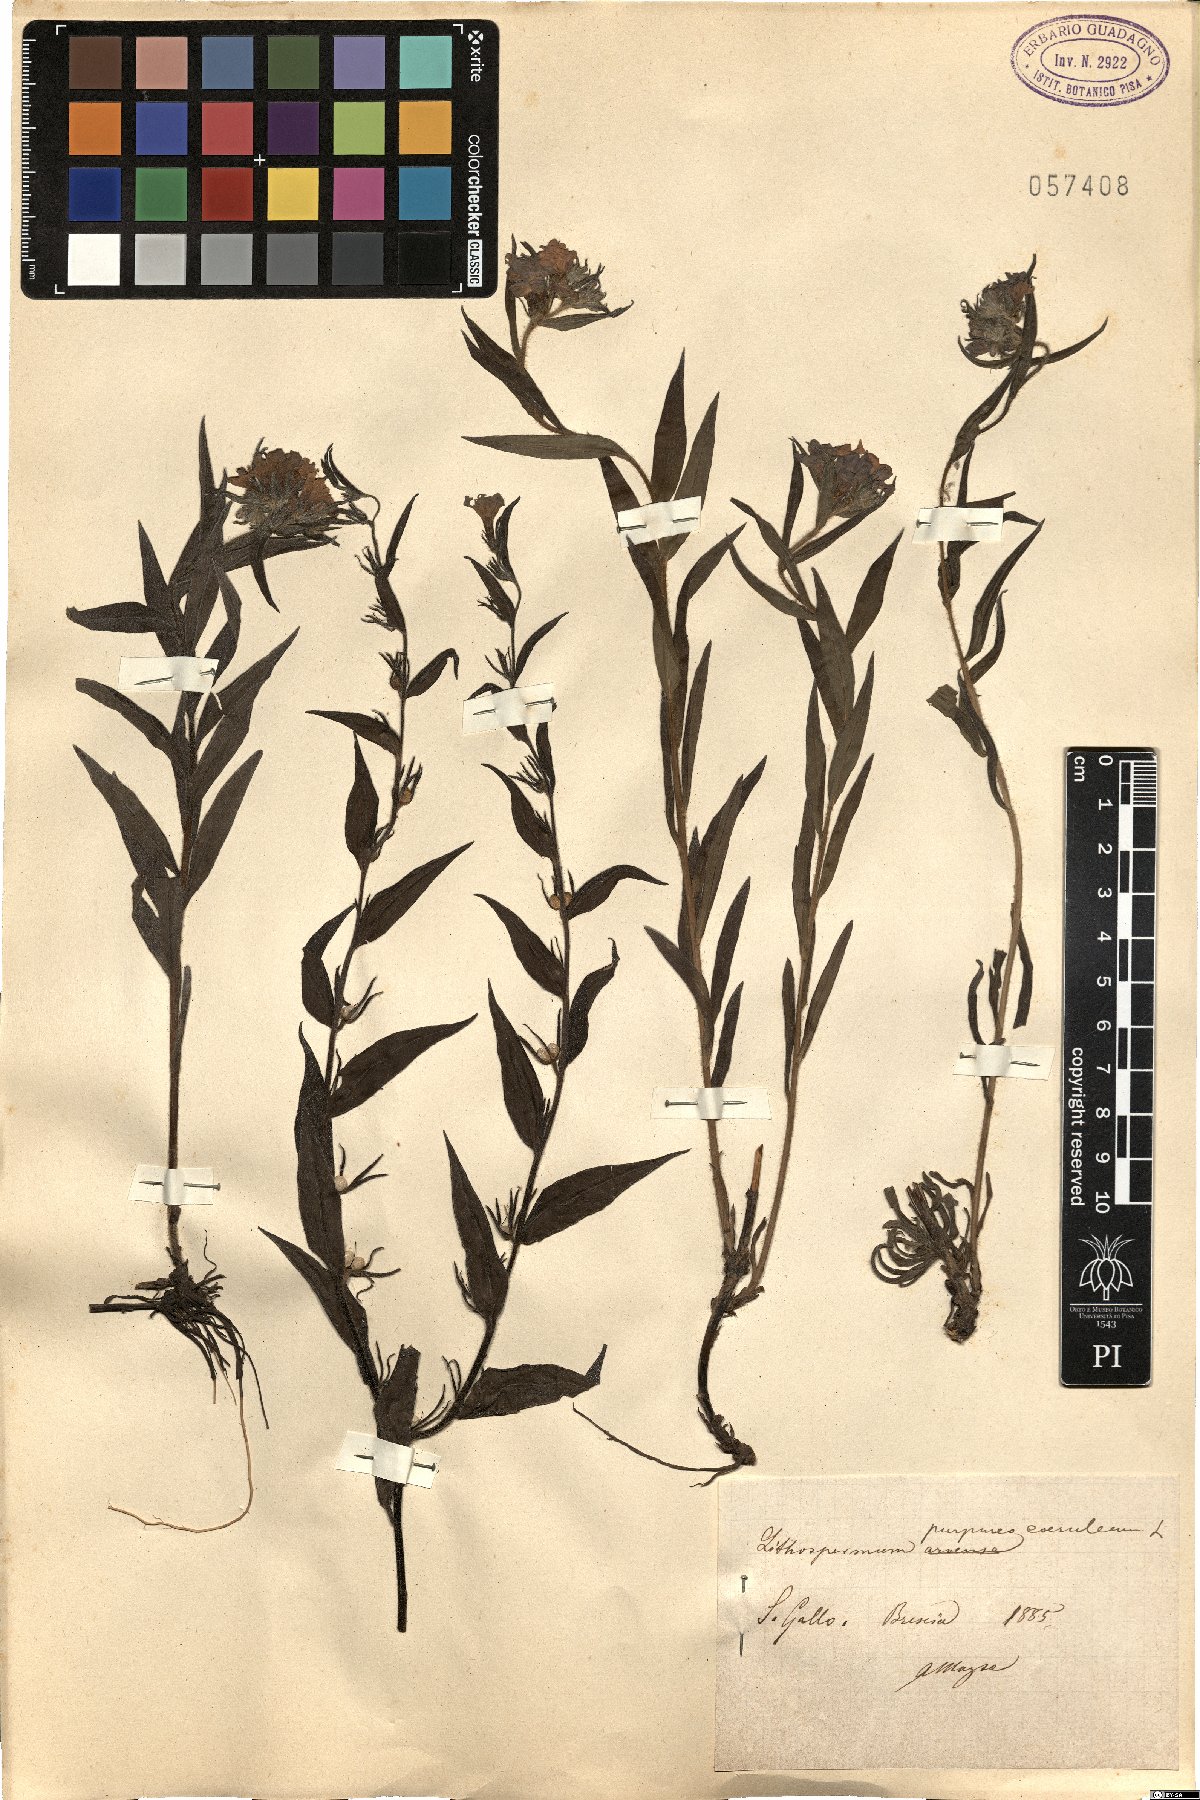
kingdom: Plantae
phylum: Tracheophyta
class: Magnoliopsida
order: Boraginales
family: Boraginaceae
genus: Aegonychon
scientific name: Aegonychon purpurocaeruleum
